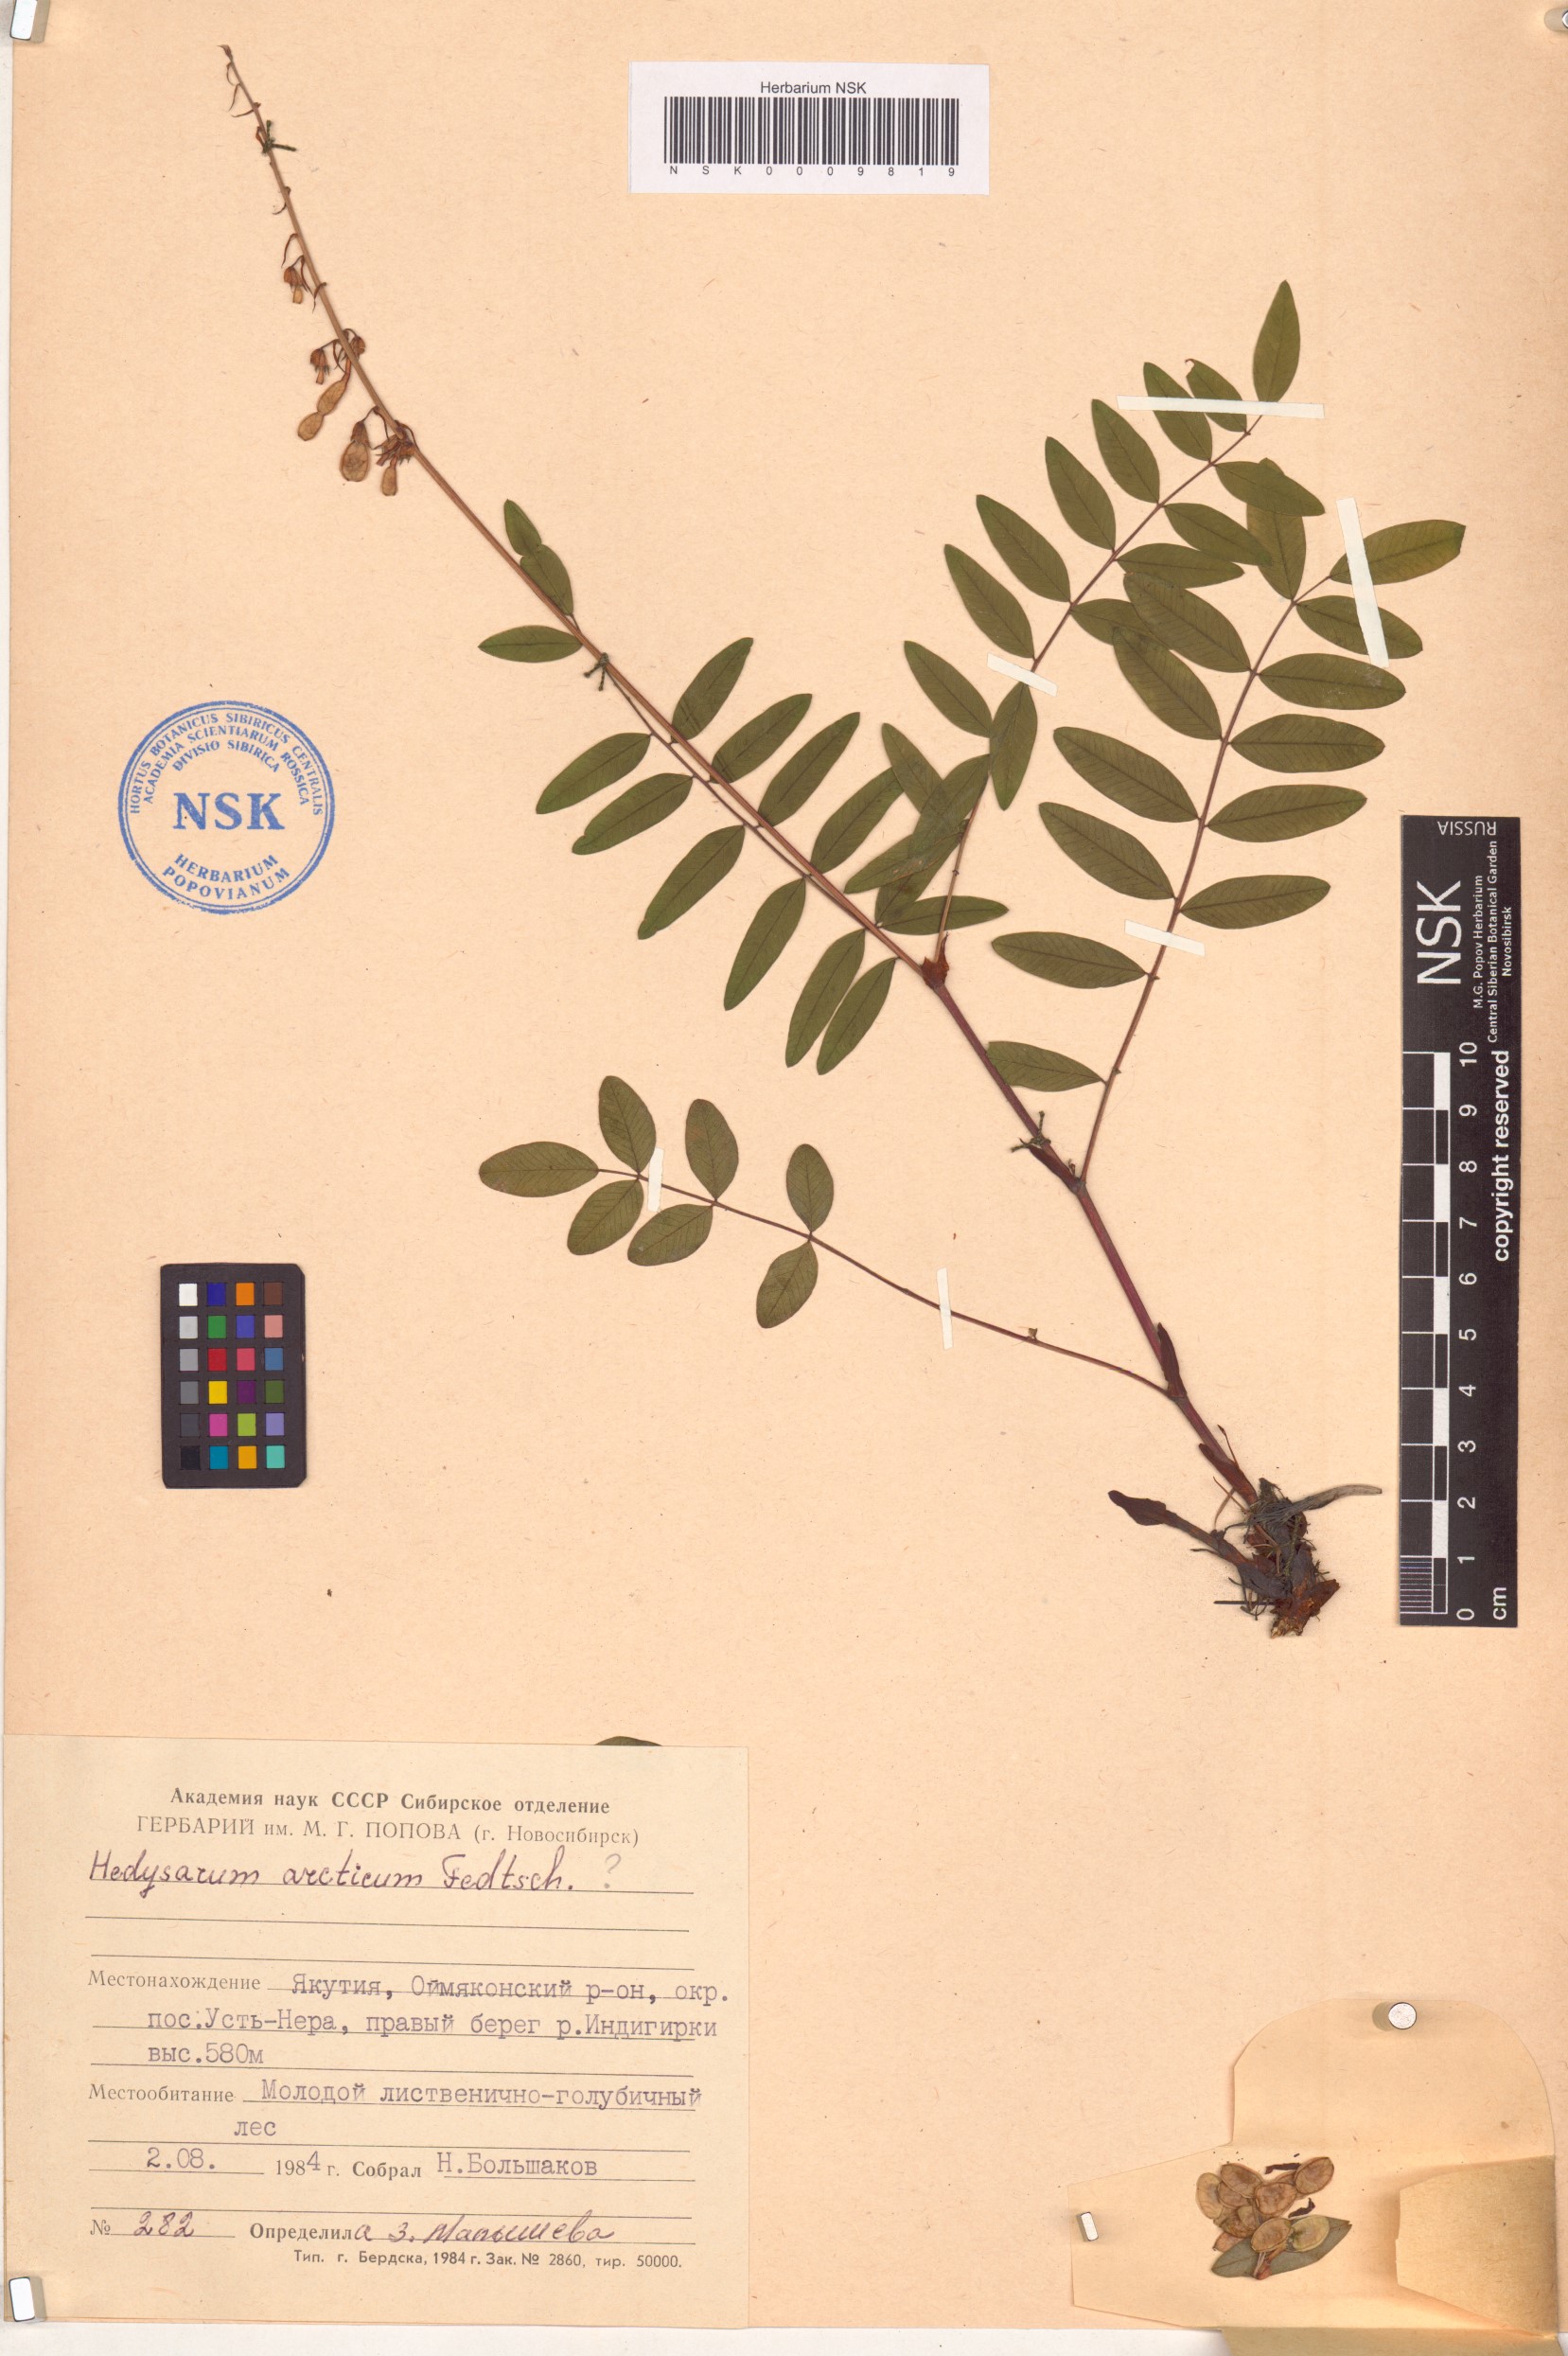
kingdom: Plantae
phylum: Tracheophyta
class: Magnoliopsida
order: Fabales
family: Fabaceae
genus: Hedysarum
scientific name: Hedysarum hedysaroides
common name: Alpine french-honeysuckle
